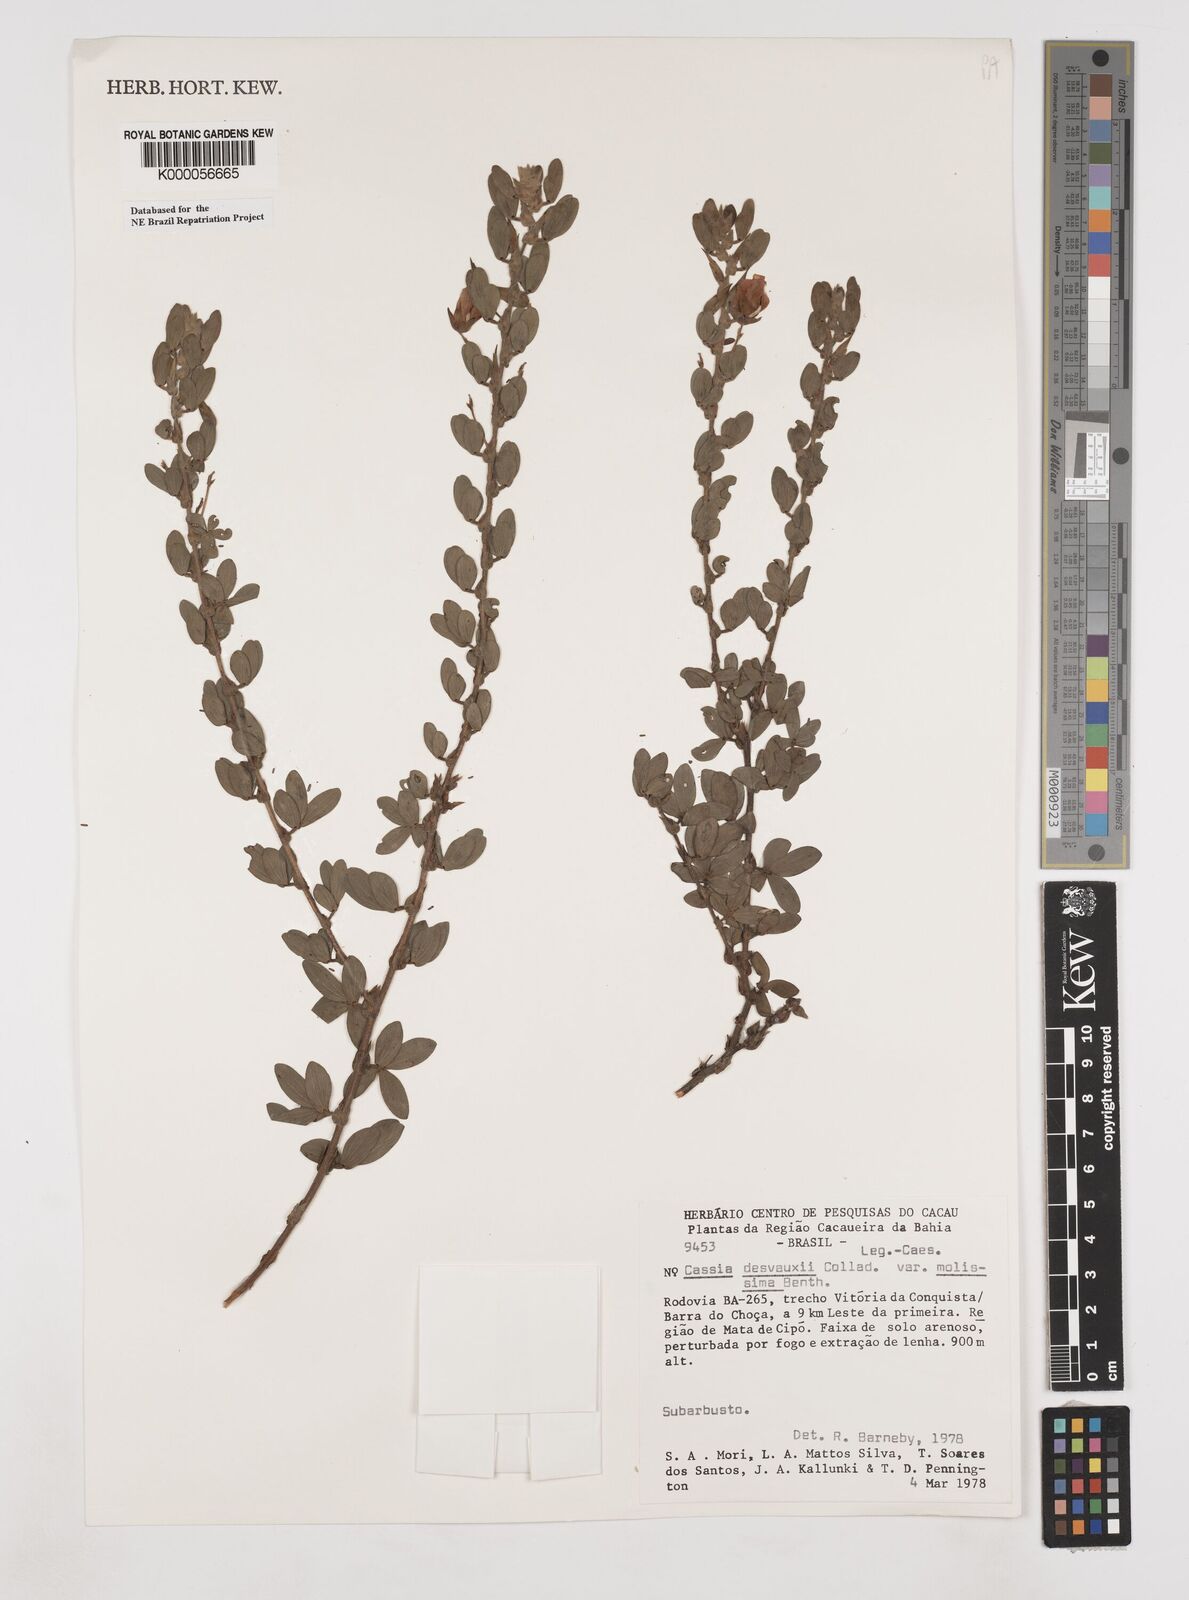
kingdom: Plantae
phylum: Tracheophyta
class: Magnoliopsida
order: Fabales
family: Fabaceae
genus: Chamaecrista
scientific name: Chamaecrista desvauxii
